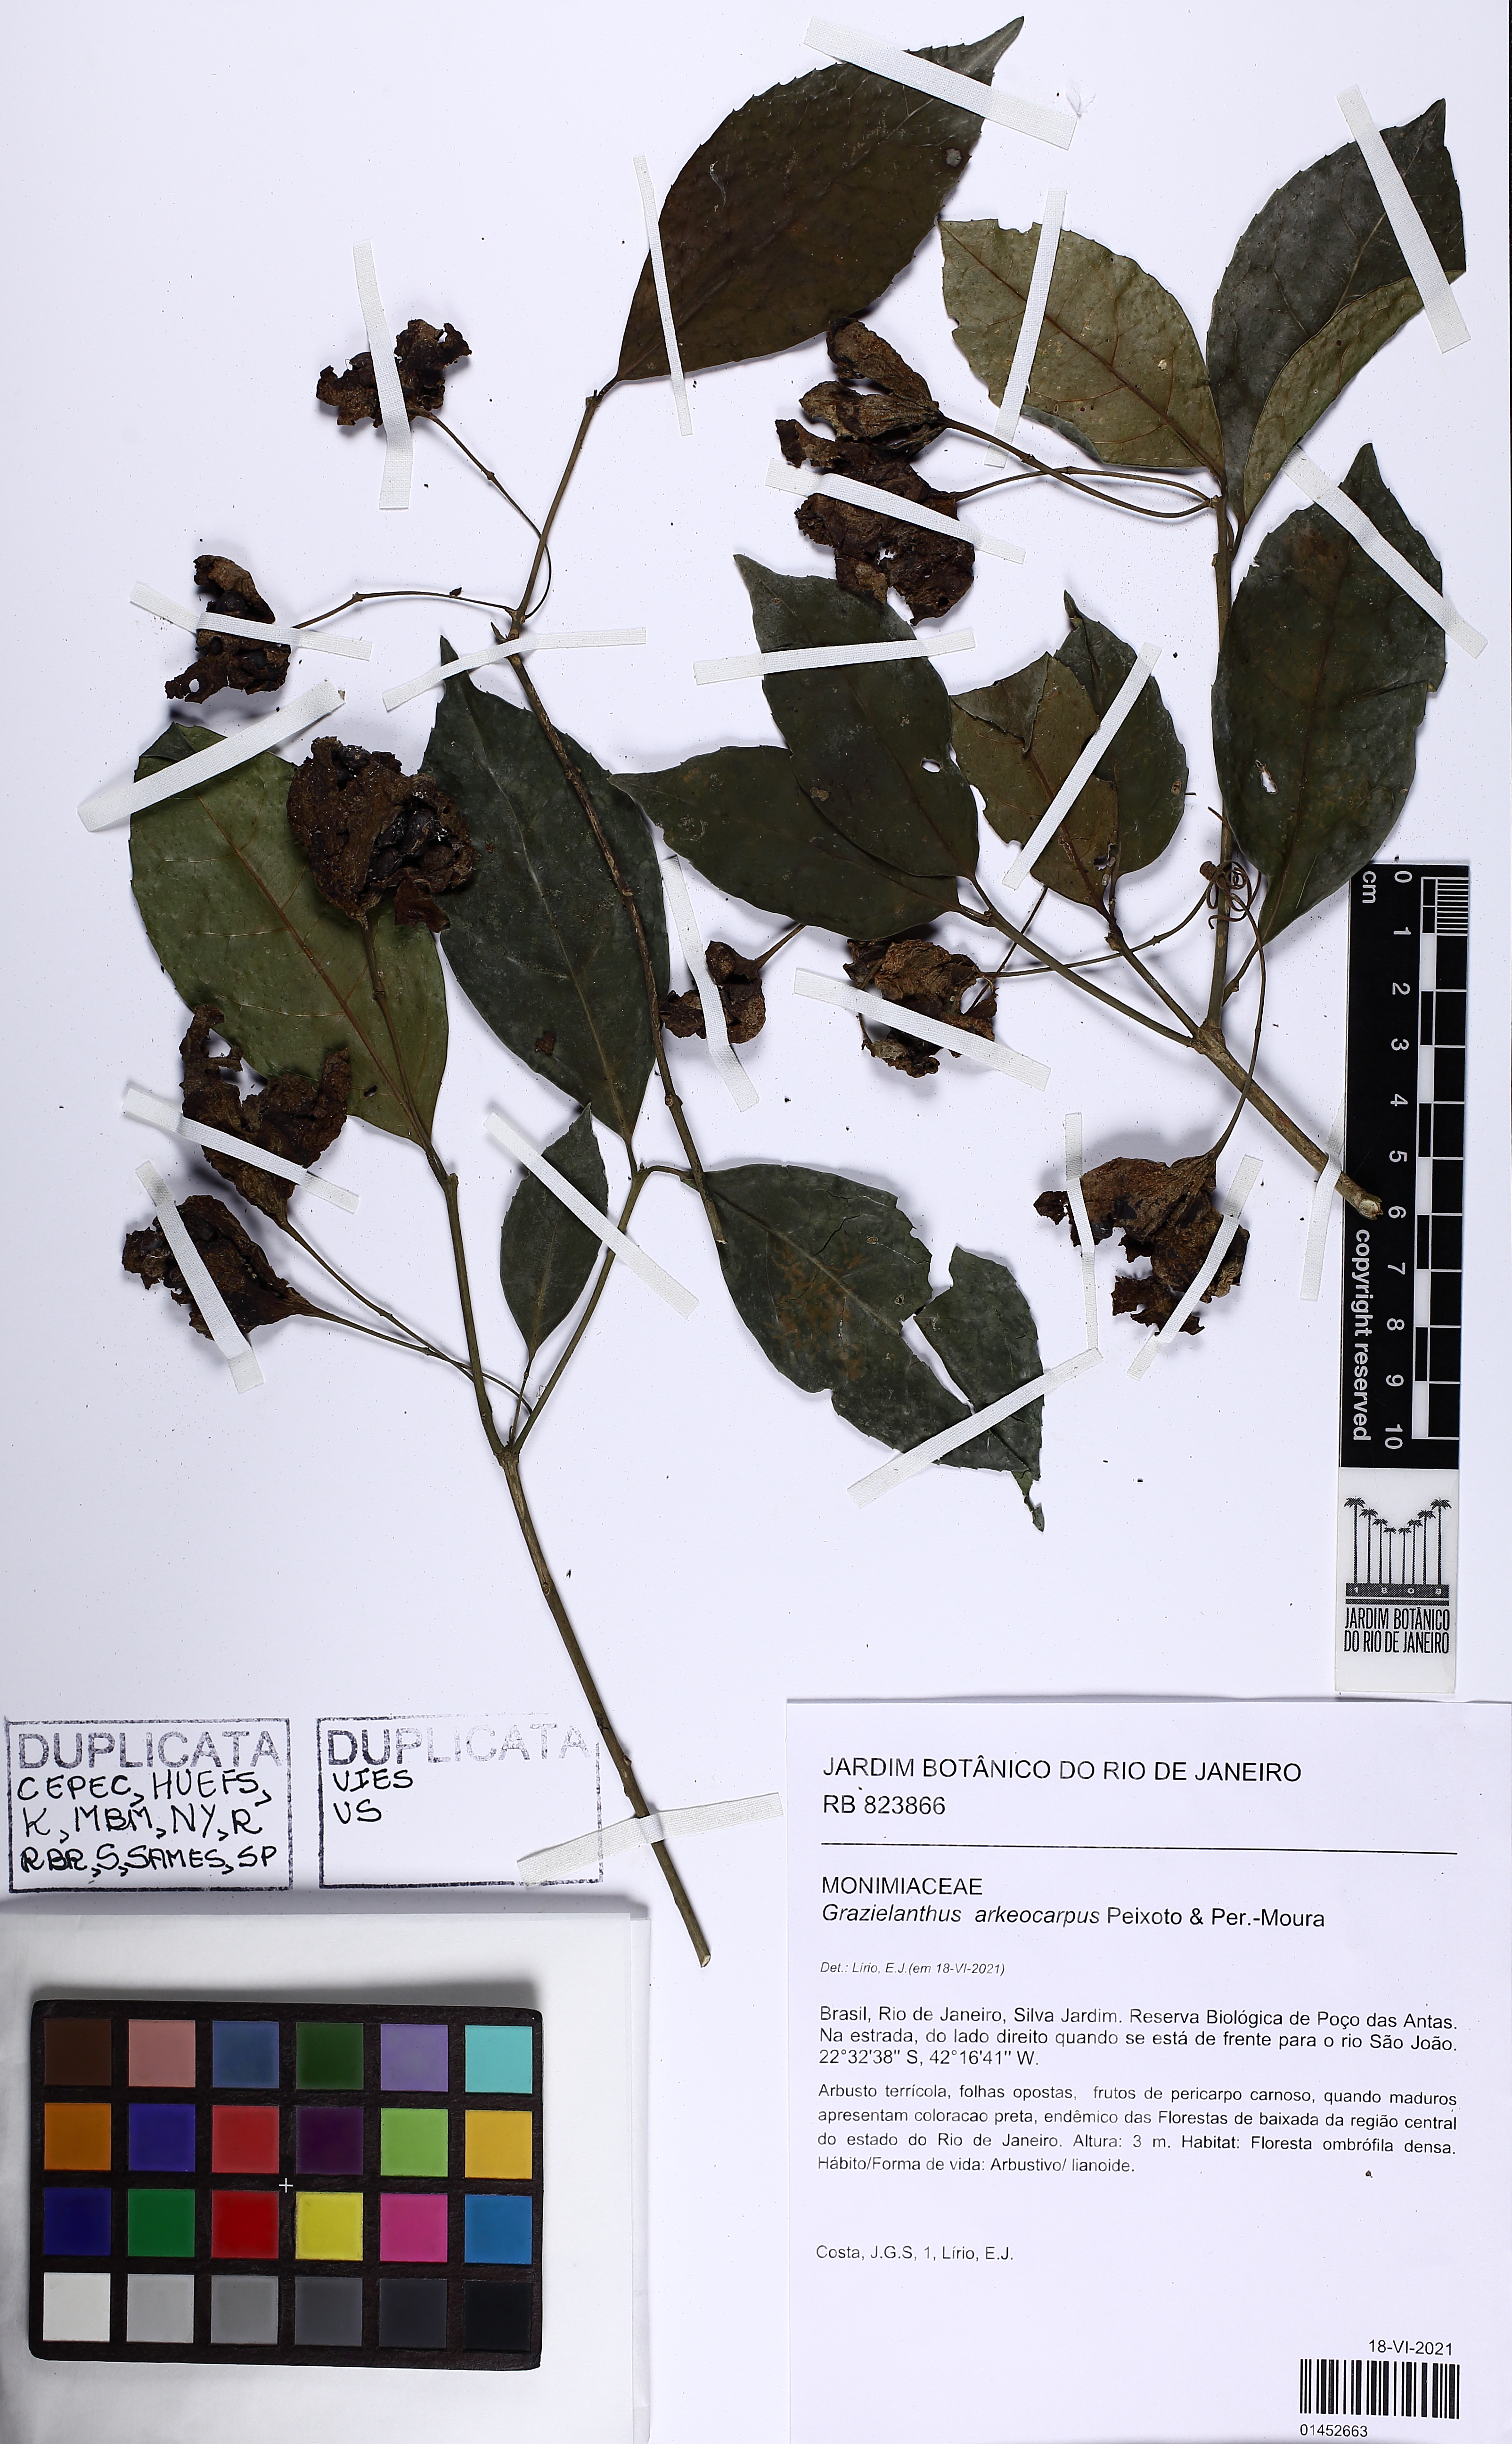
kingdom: Plantae
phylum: Tracheophyta
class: Magnoliopsida
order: Laurales
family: Monimiaceae
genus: Grazielanthus
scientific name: Grazielanthus arkeocarpus
